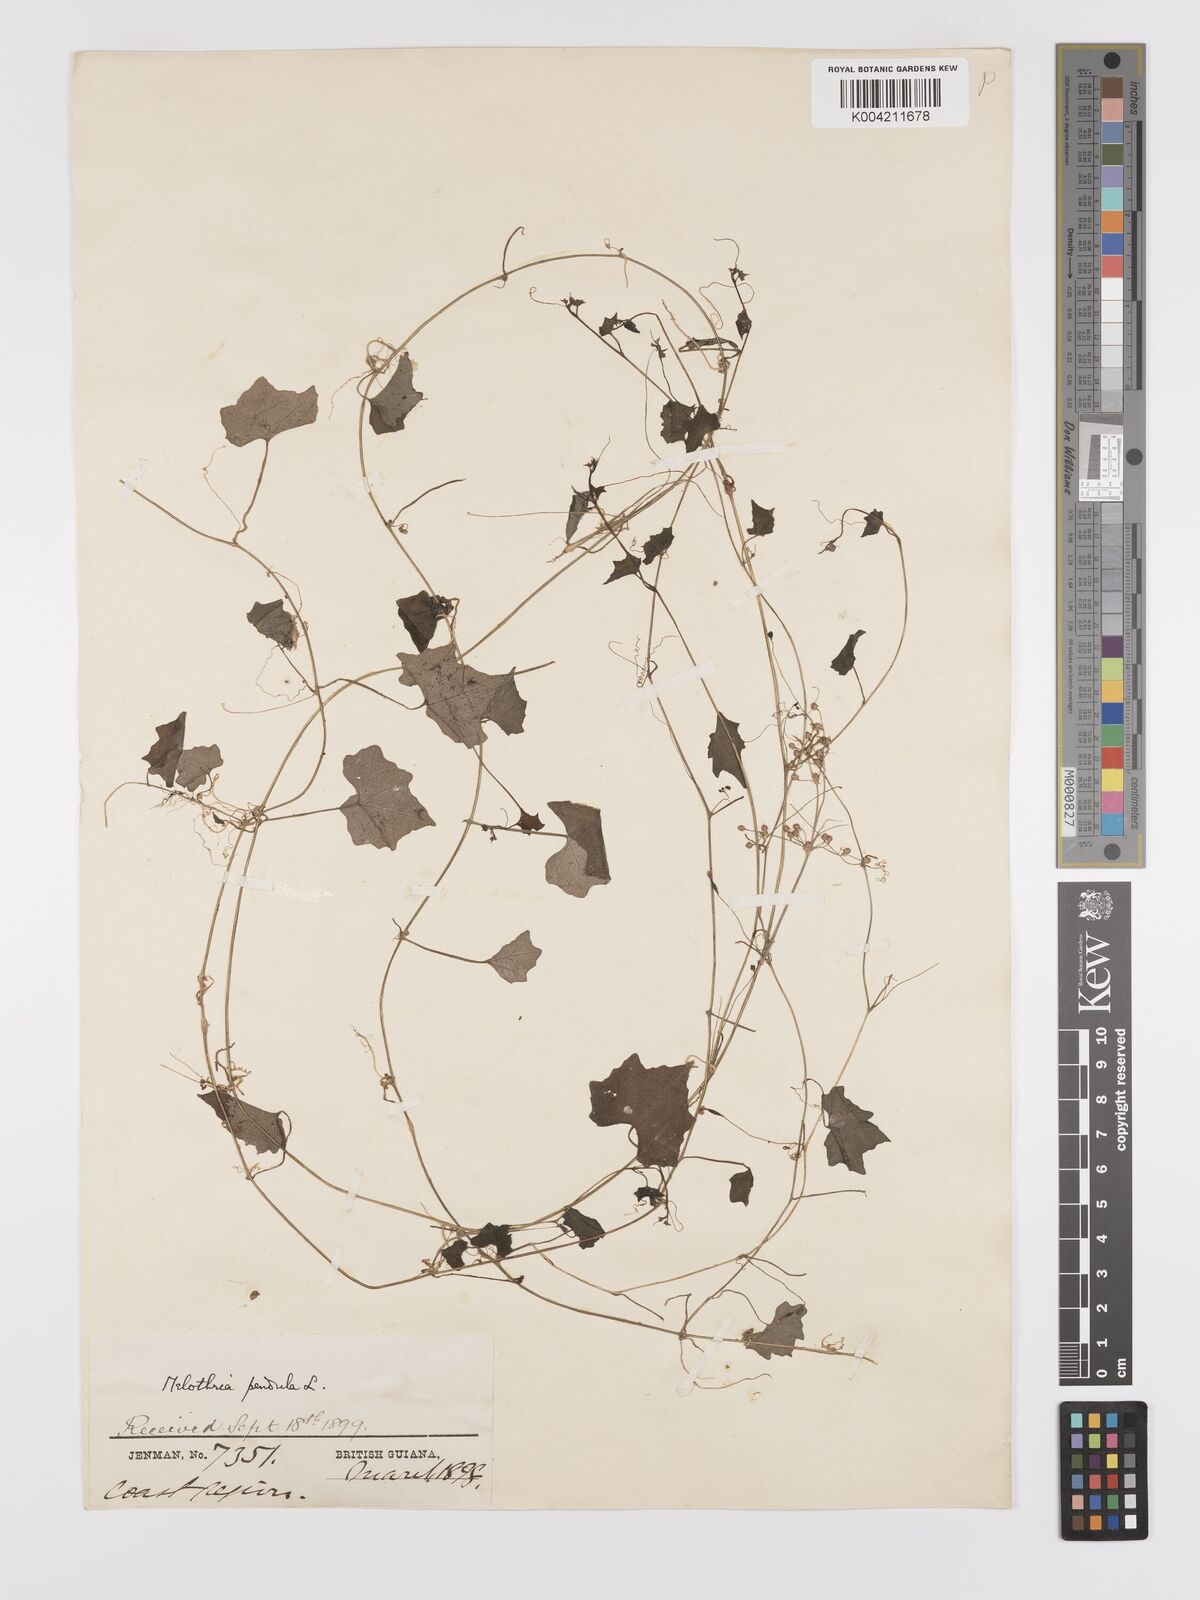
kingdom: Plantae
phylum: Tracheophyta
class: Magnoliopsida
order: Cucurbitales
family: Cucurbitaceae
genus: Melothria
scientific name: Melothria pendula
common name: Creeping-cucumber
